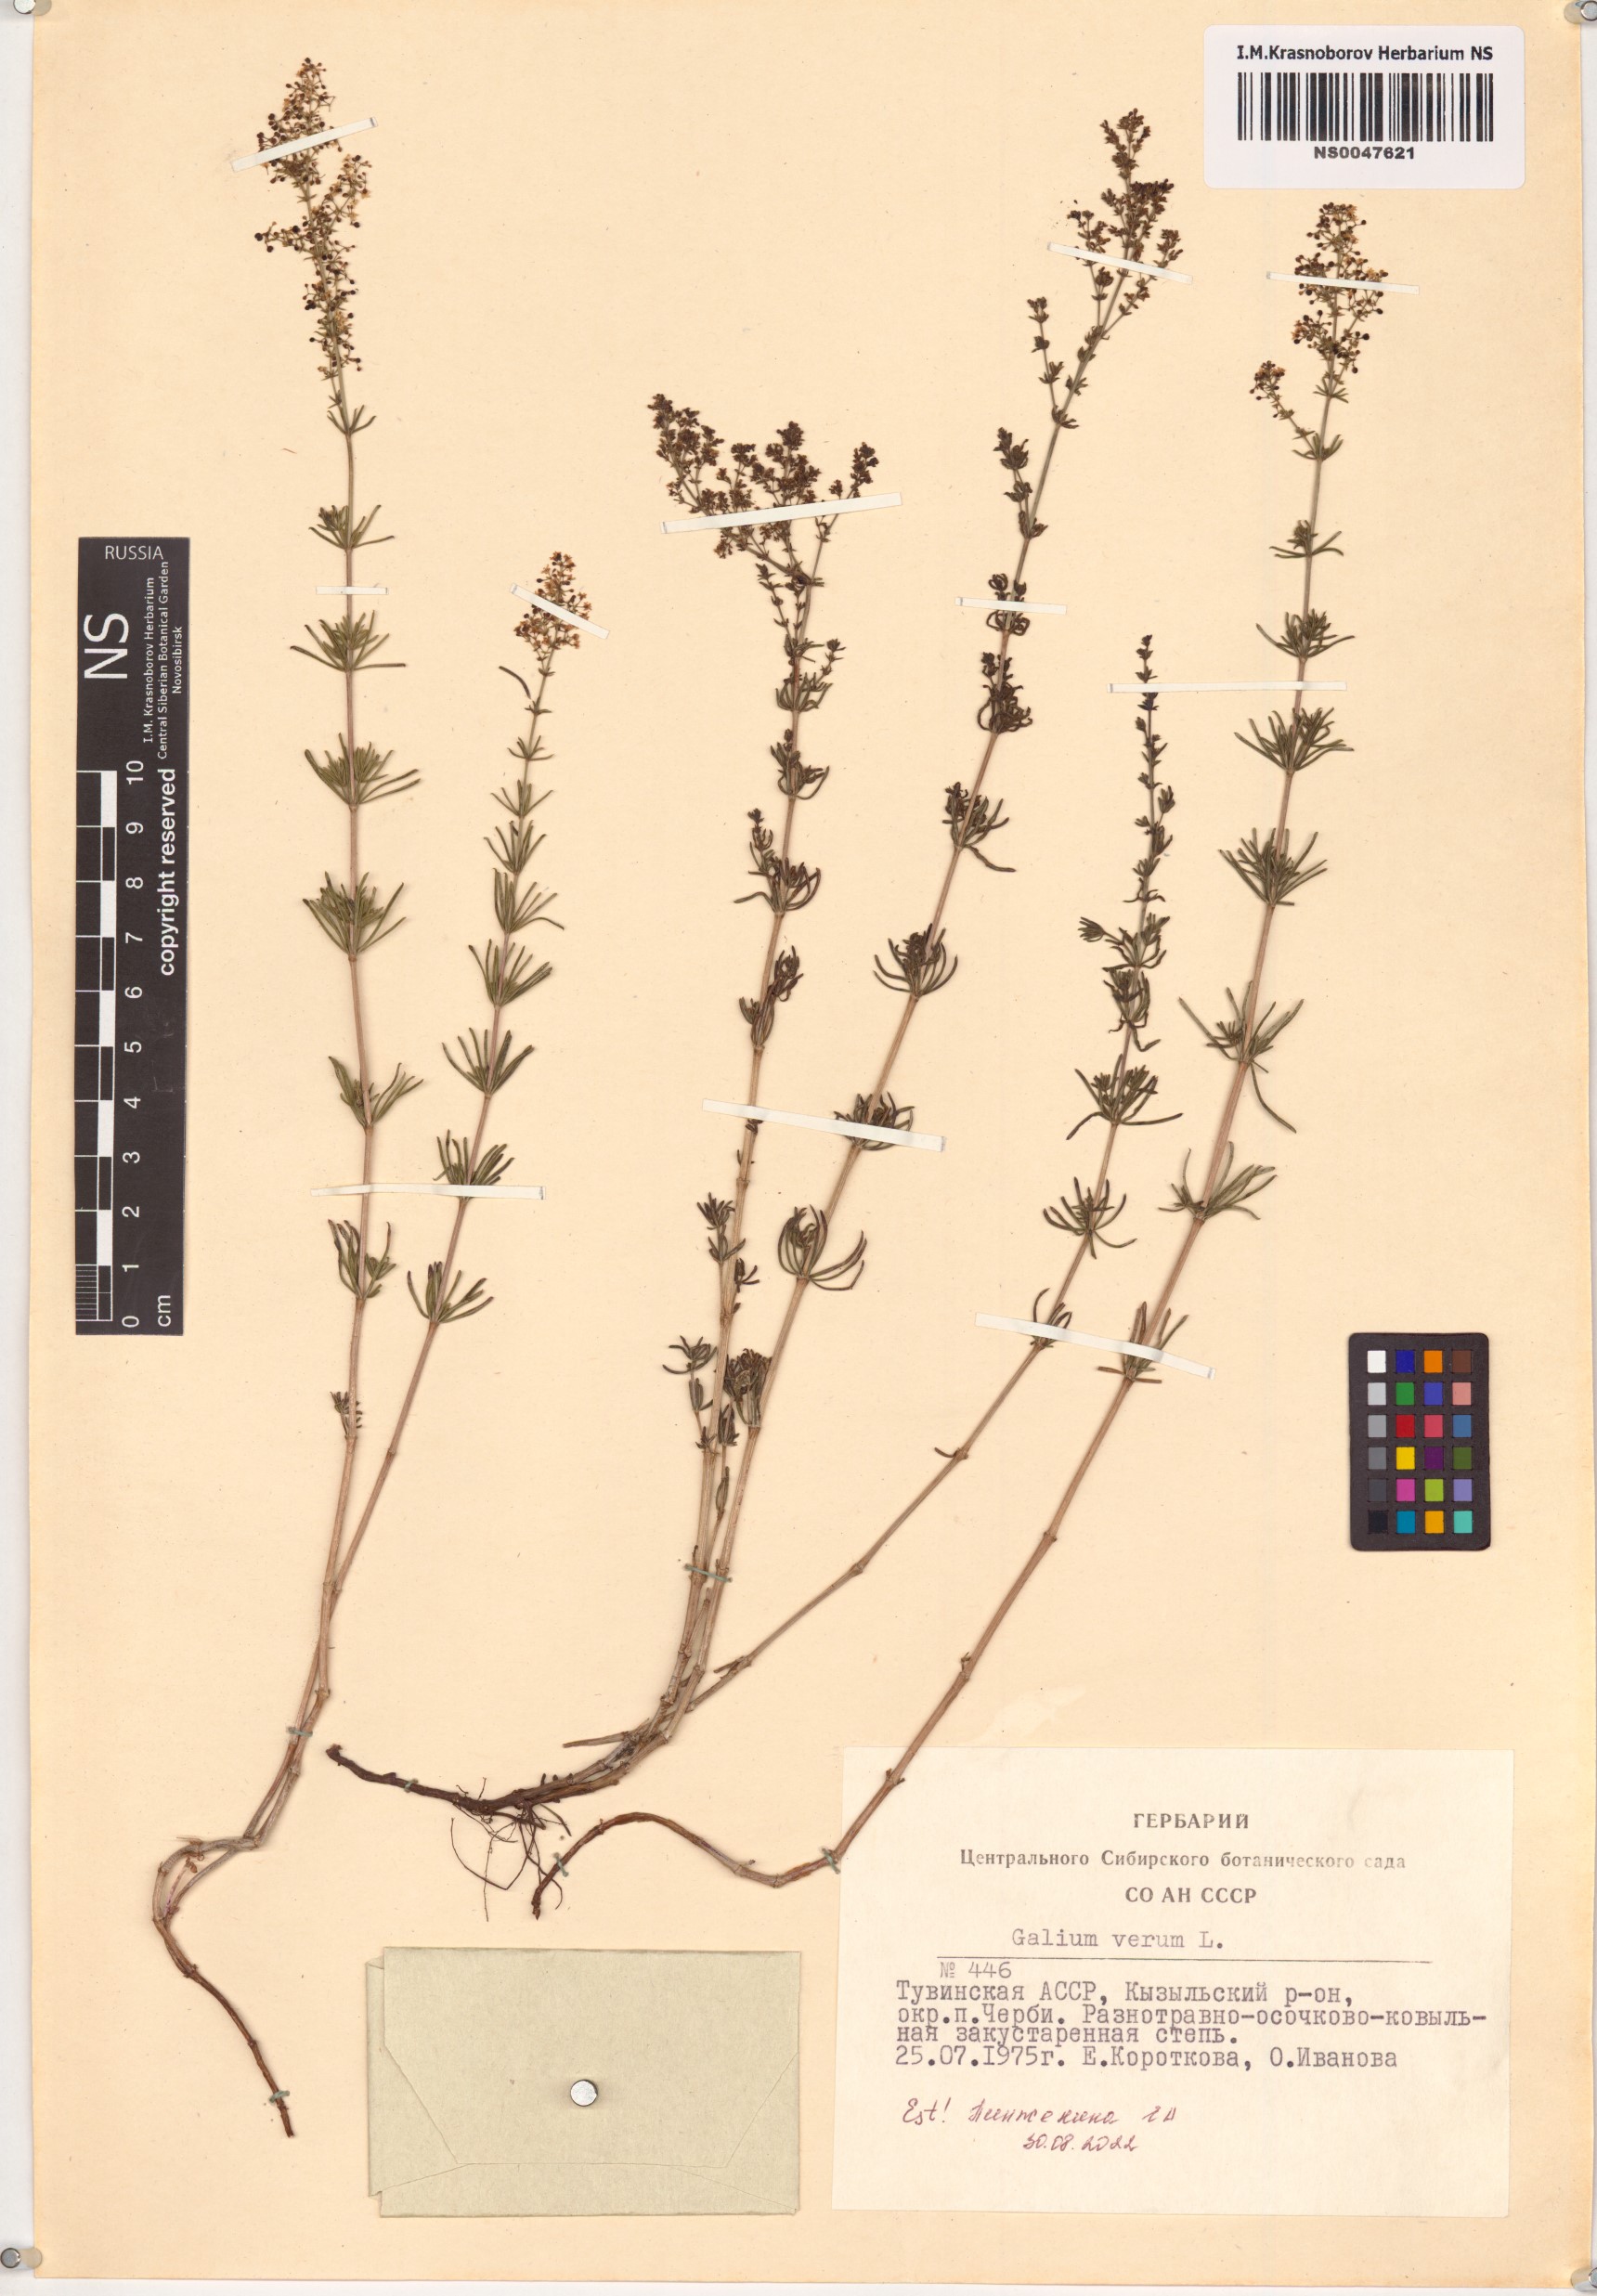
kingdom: Plantae
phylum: Tracheophyta
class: Magnoliopsida
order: Gentianales
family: Rubiaceae
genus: Galium
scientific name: Galium verum
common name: Lady's bedstraw
